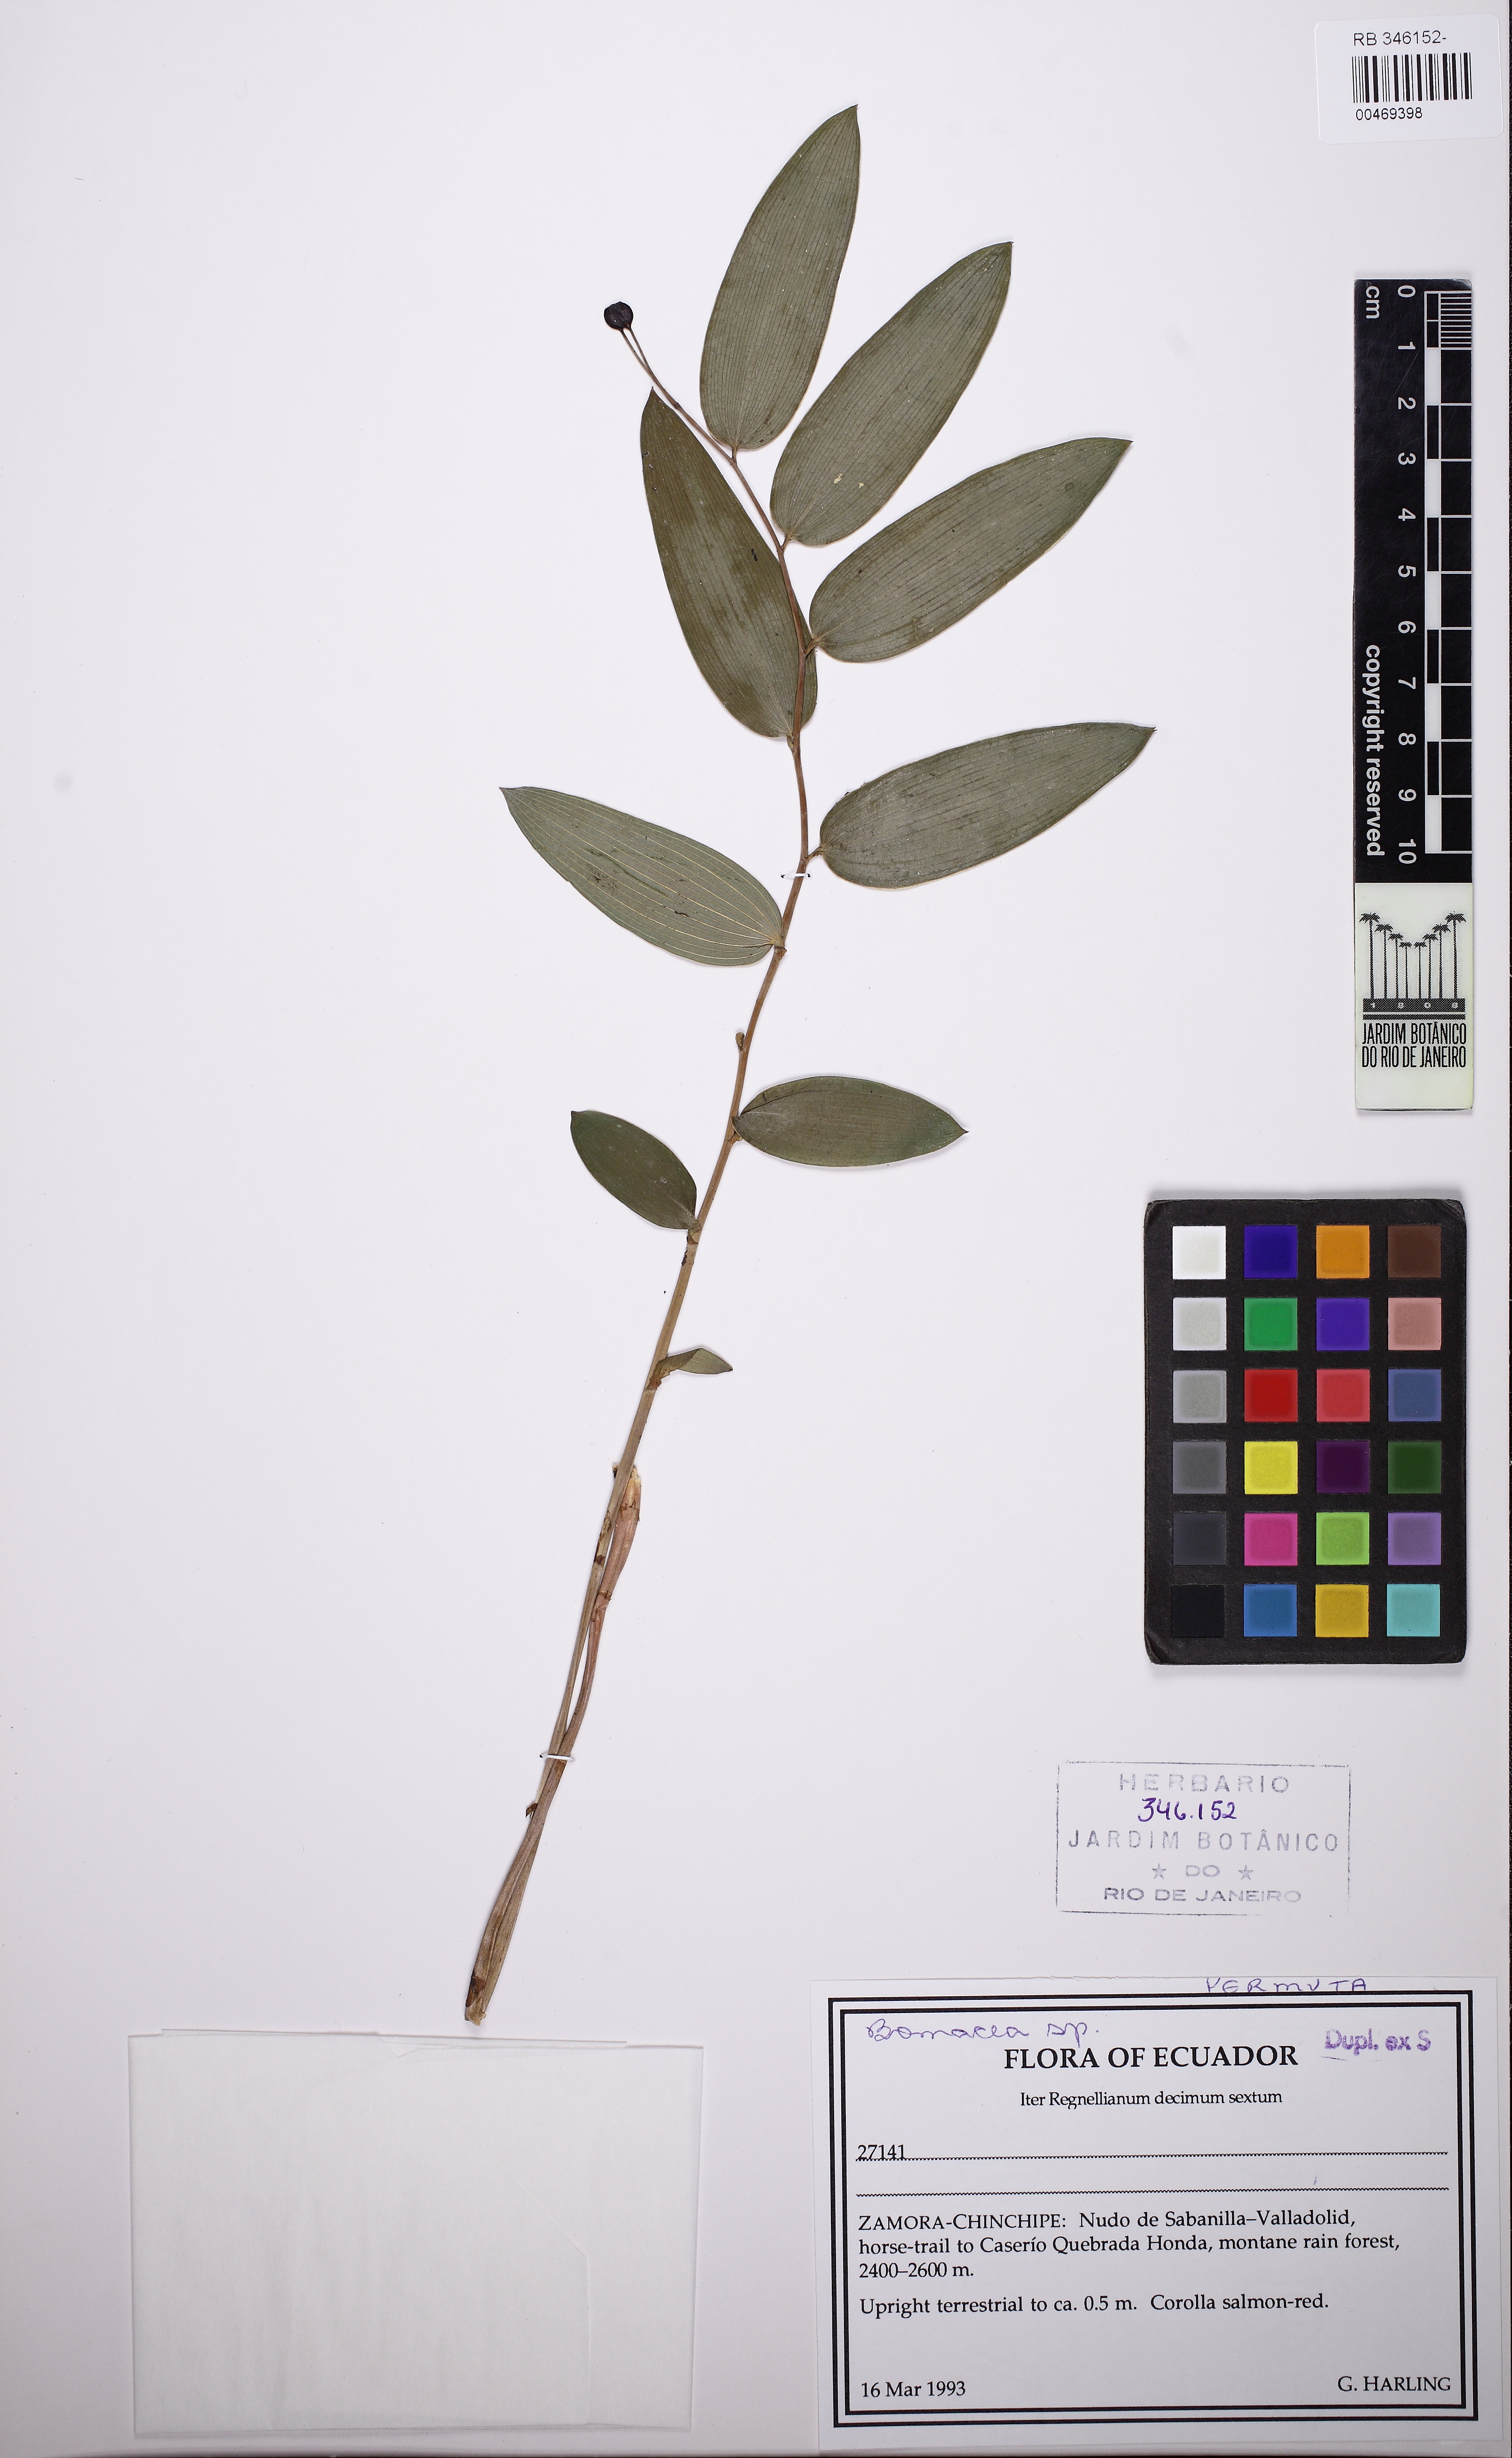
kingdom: Plantae
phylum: Tracheophyta
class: Liliopsida
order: Liliales
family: Alstroemeriaceae
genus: Bomarea
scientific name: Bomarea
